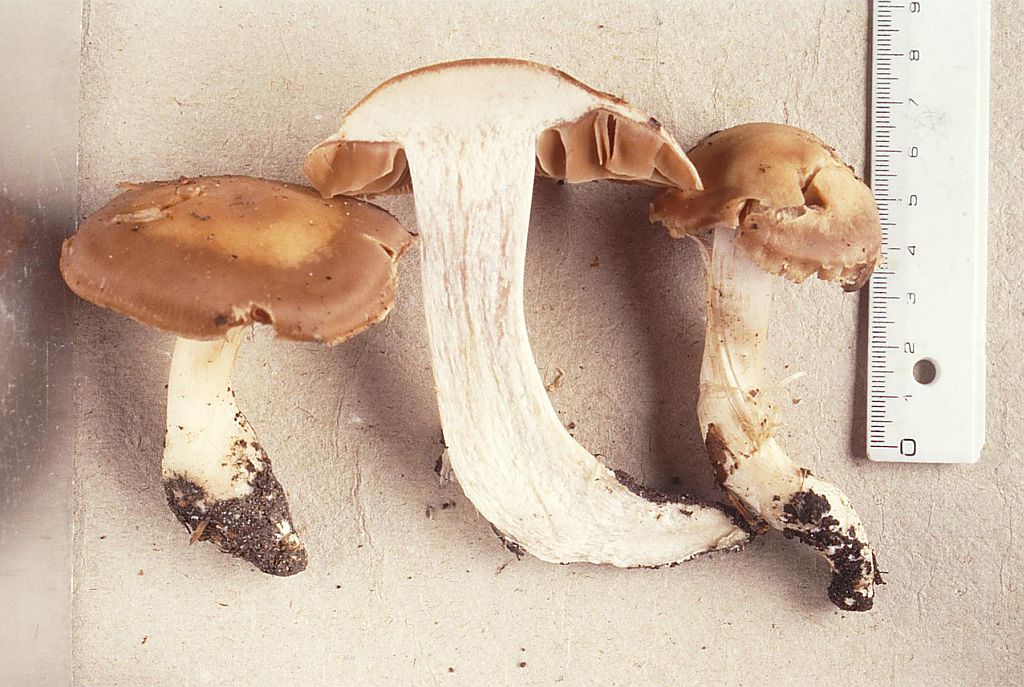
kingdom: Fungi
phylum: Basidiomycota
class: Agaricomycetes
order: Agaricales
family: Cortinariaceae
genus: Cortinarius
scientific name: Cortinarius spisnii
